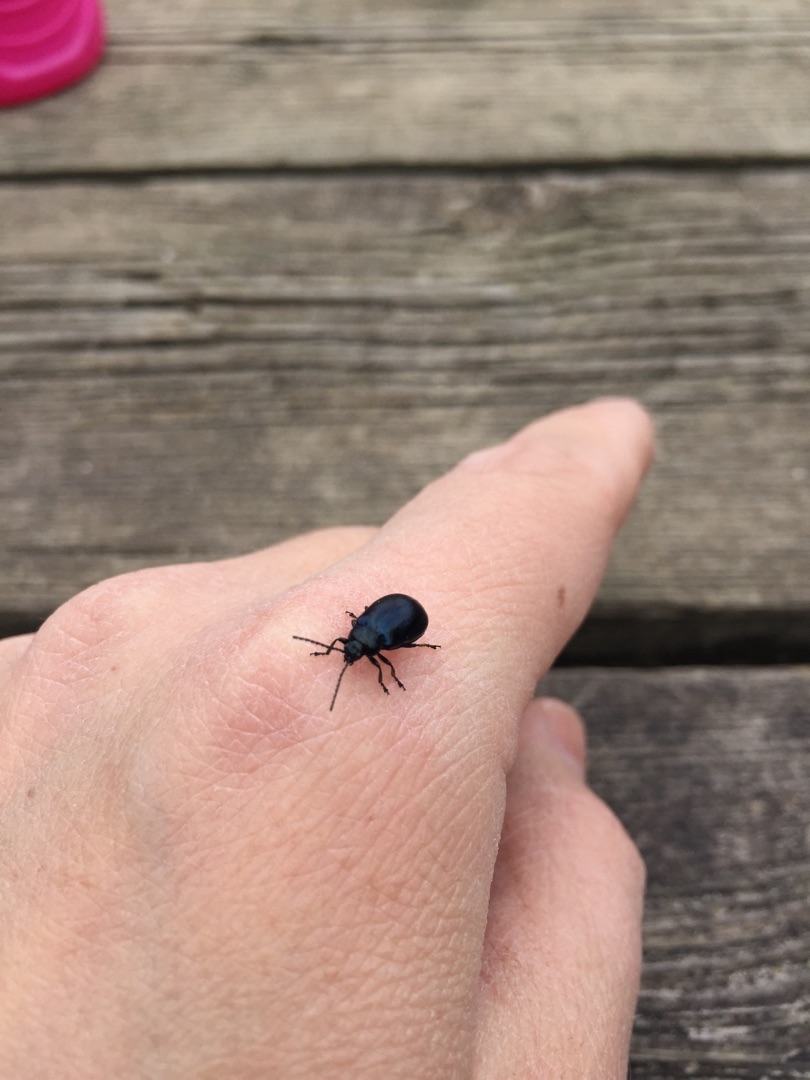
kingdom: Animalia
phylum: Arthropoda
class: Insecta
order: Coleoptera
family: Chrysomelidae
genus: Agelastica
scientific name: Agelastica alni
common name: Ellebladbille
